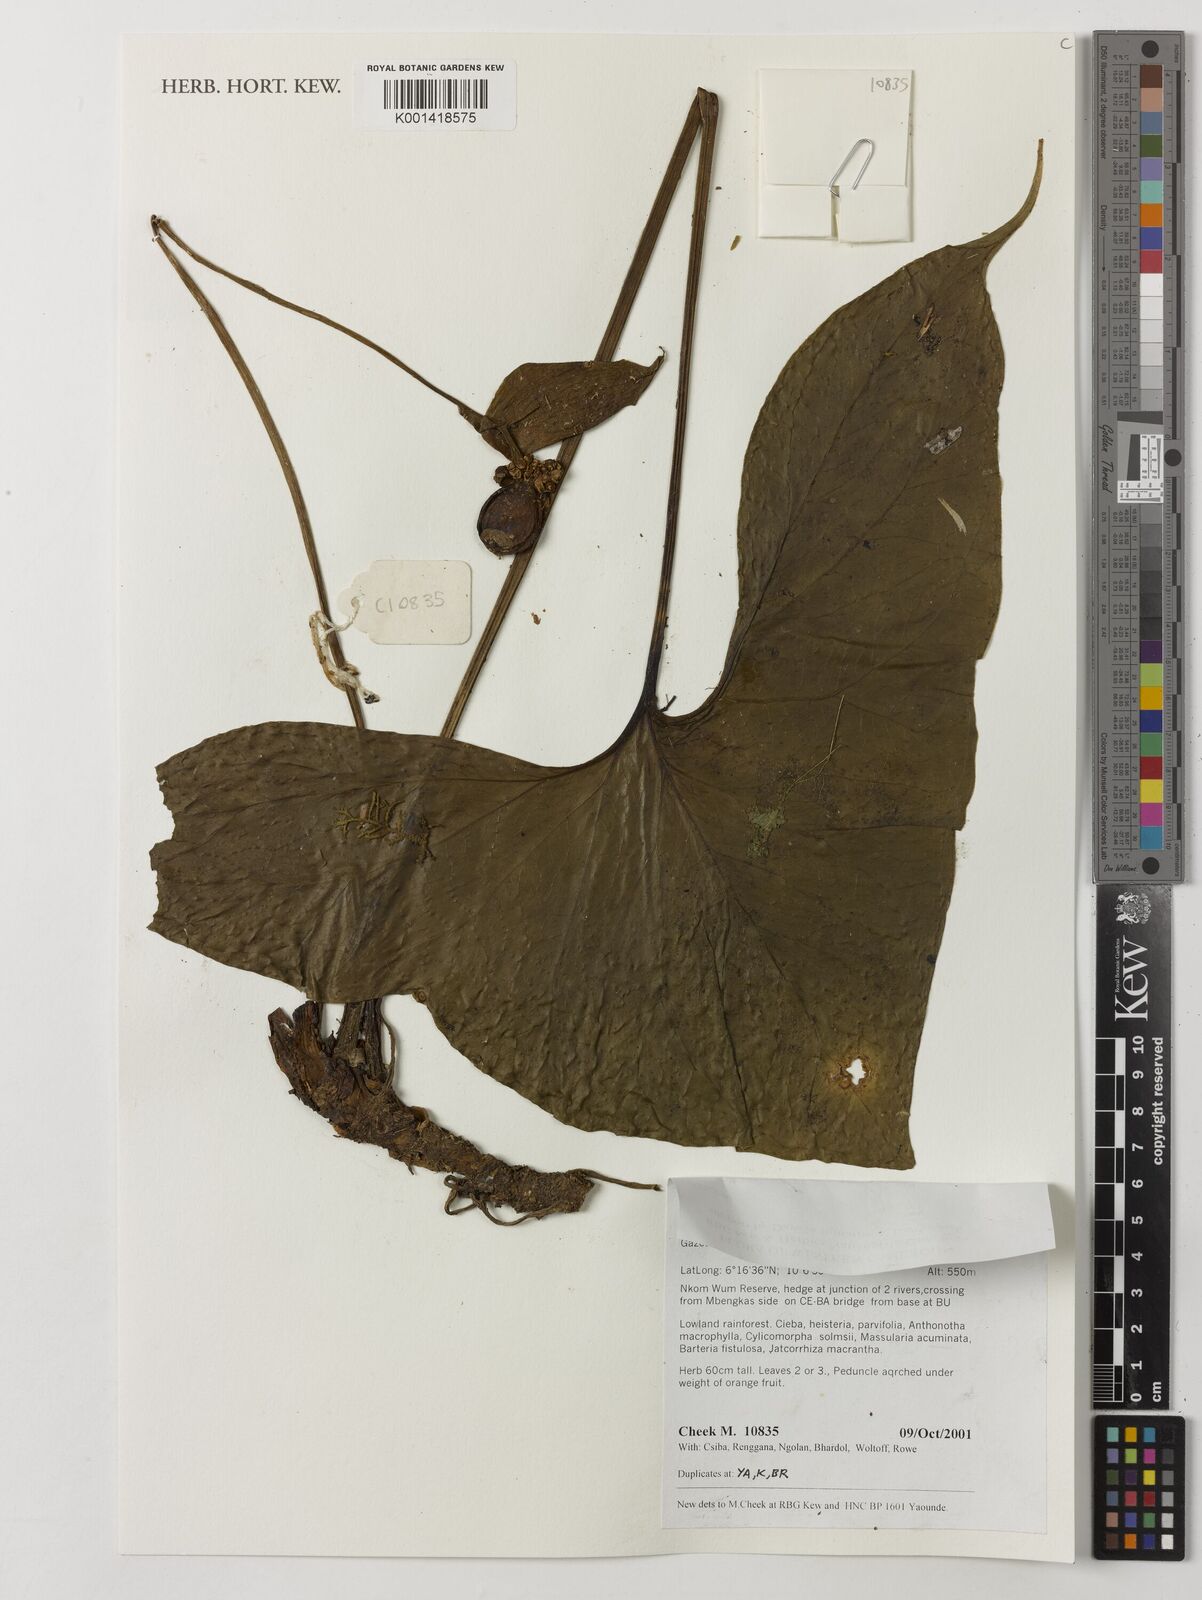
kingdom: Plantae
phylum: Tracheophyta
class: Liliopsida
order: Alismatales
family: Araceae
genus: Nephthytis
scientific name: Nephthytis poissonii
